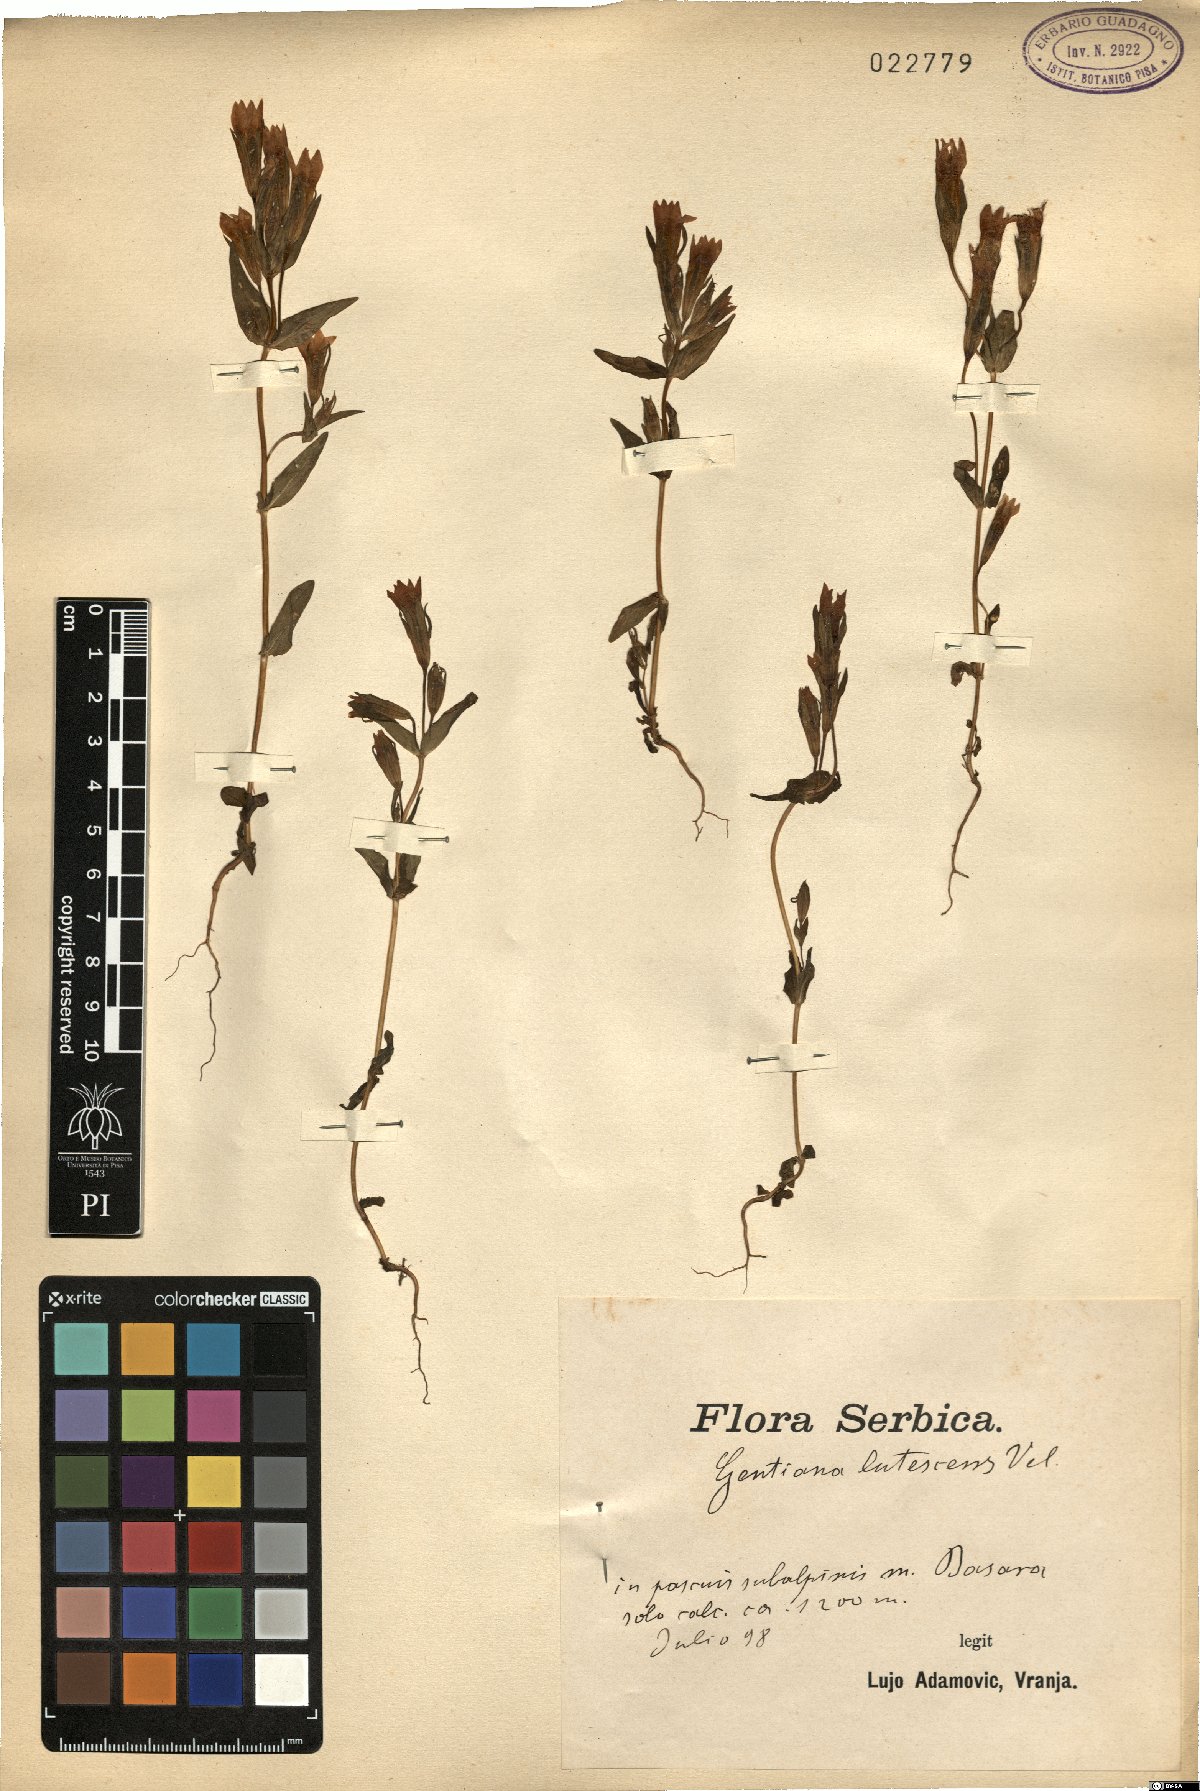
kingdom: Plantae
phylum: Tracheophyta
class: Magnoliopsida
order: Gentianales
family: Gentianaceae
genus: Gentianella
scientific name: Gentianella praecox
